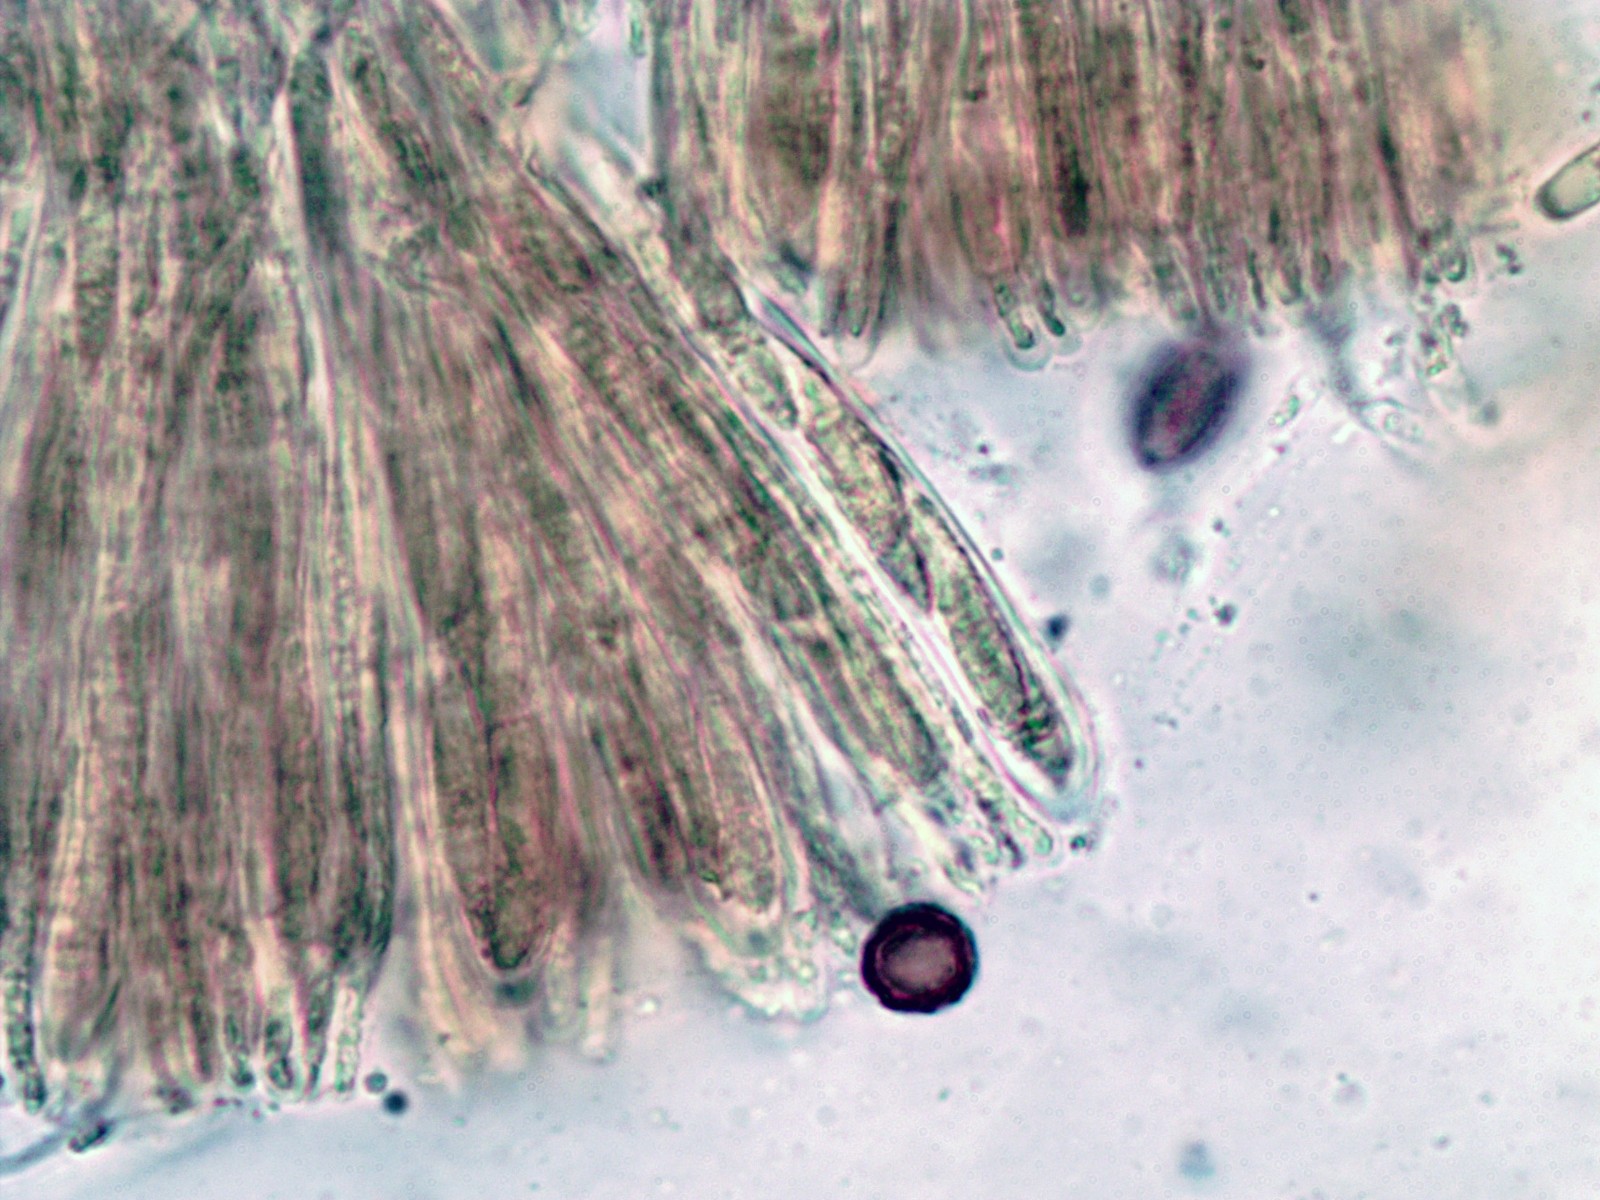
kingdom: Fungi
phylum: Ascomycota
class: Leotiomycetes
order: Helotiales
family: Helotiaceae
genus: Hymenoscyphus
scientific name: Hymenoscyphus
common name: stilkskive
